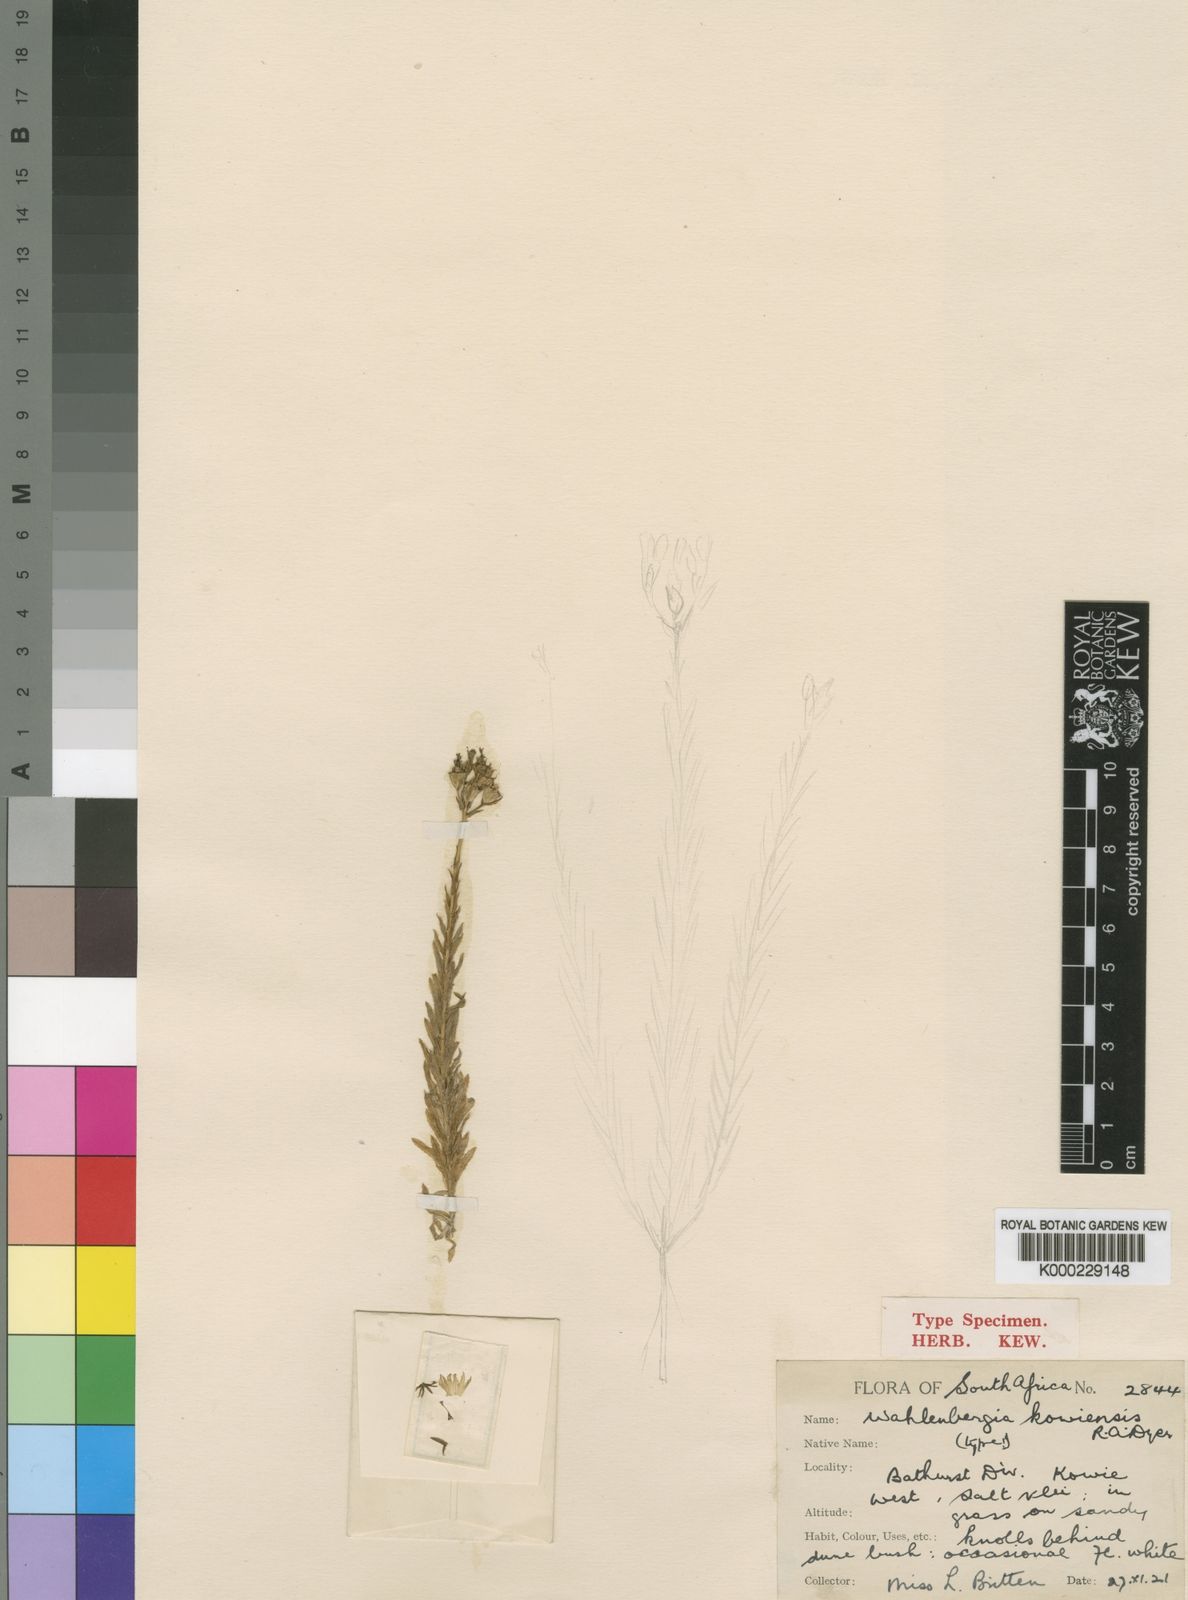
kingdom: Plantae
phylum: Tracheophyta
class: Magnoliopsida
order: Asterales
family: Campanulaceae
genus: Wahlenbergia
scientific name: Wahlenbergia kowiensis
